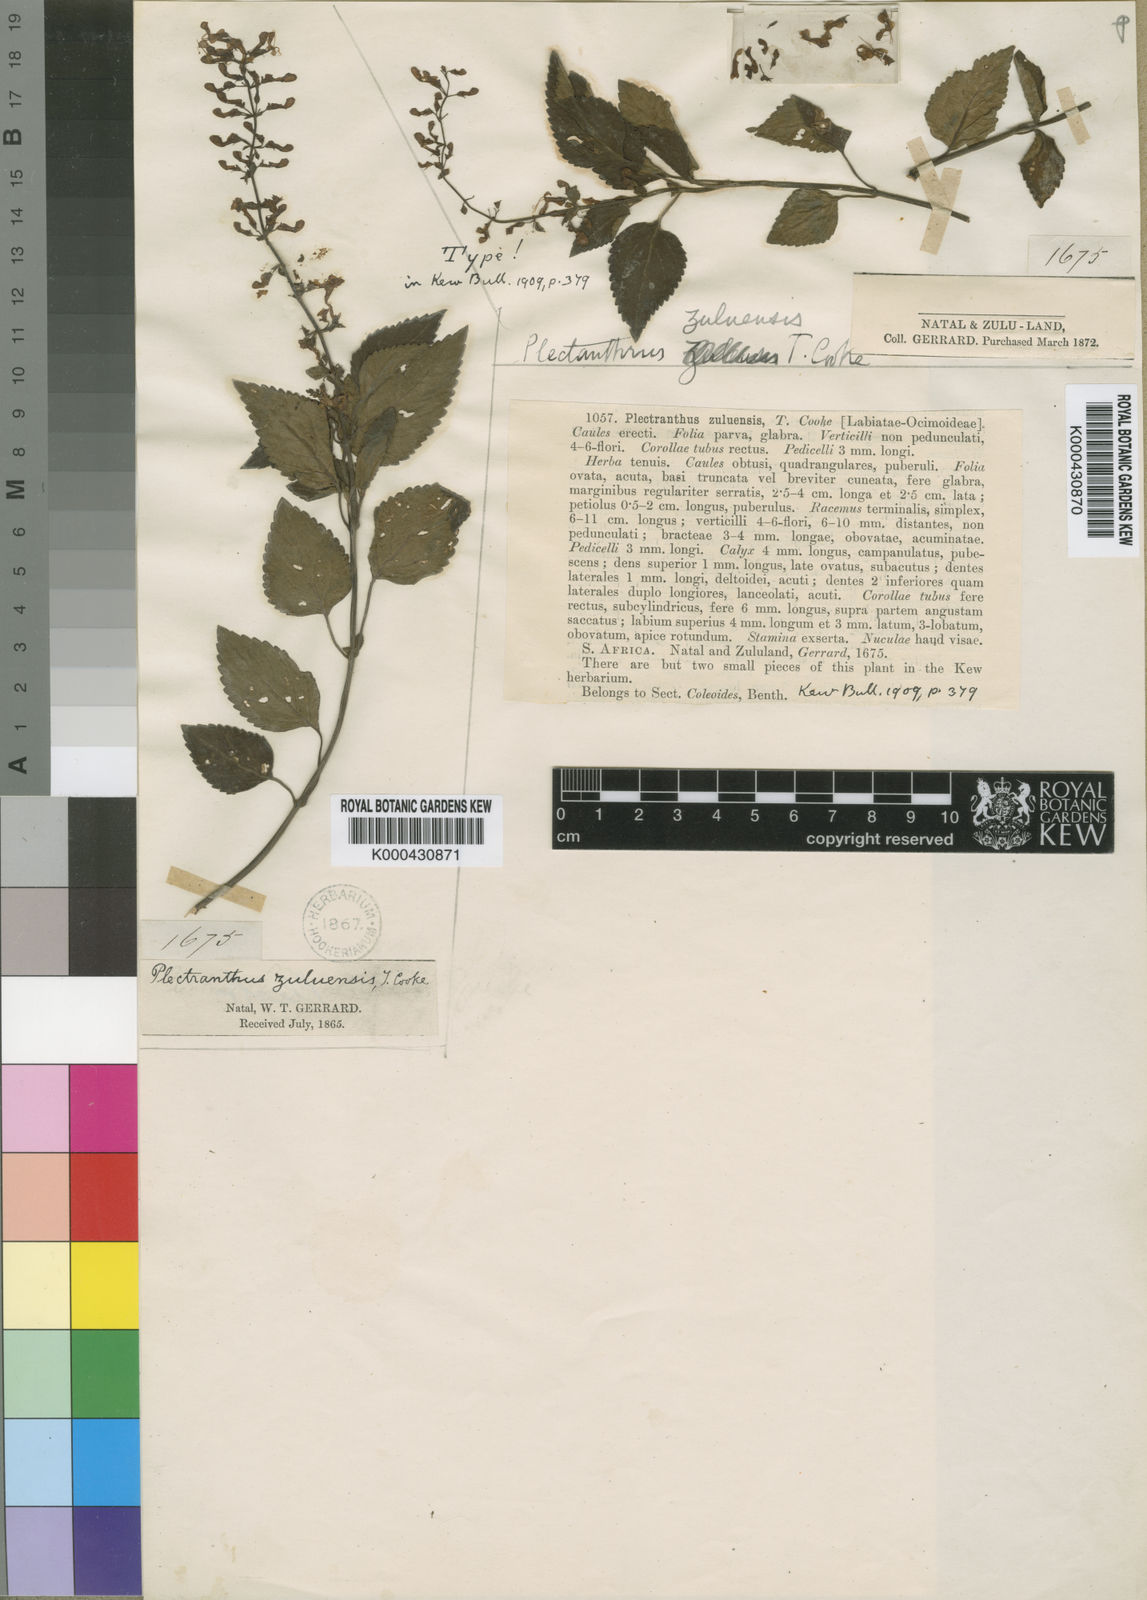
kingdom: Plantae
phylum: Tracheophyta
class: Magnoliopsida
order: Lamiales
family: Lamiaceae
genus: Plectranthus
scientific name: Plectranthus zuluensis
